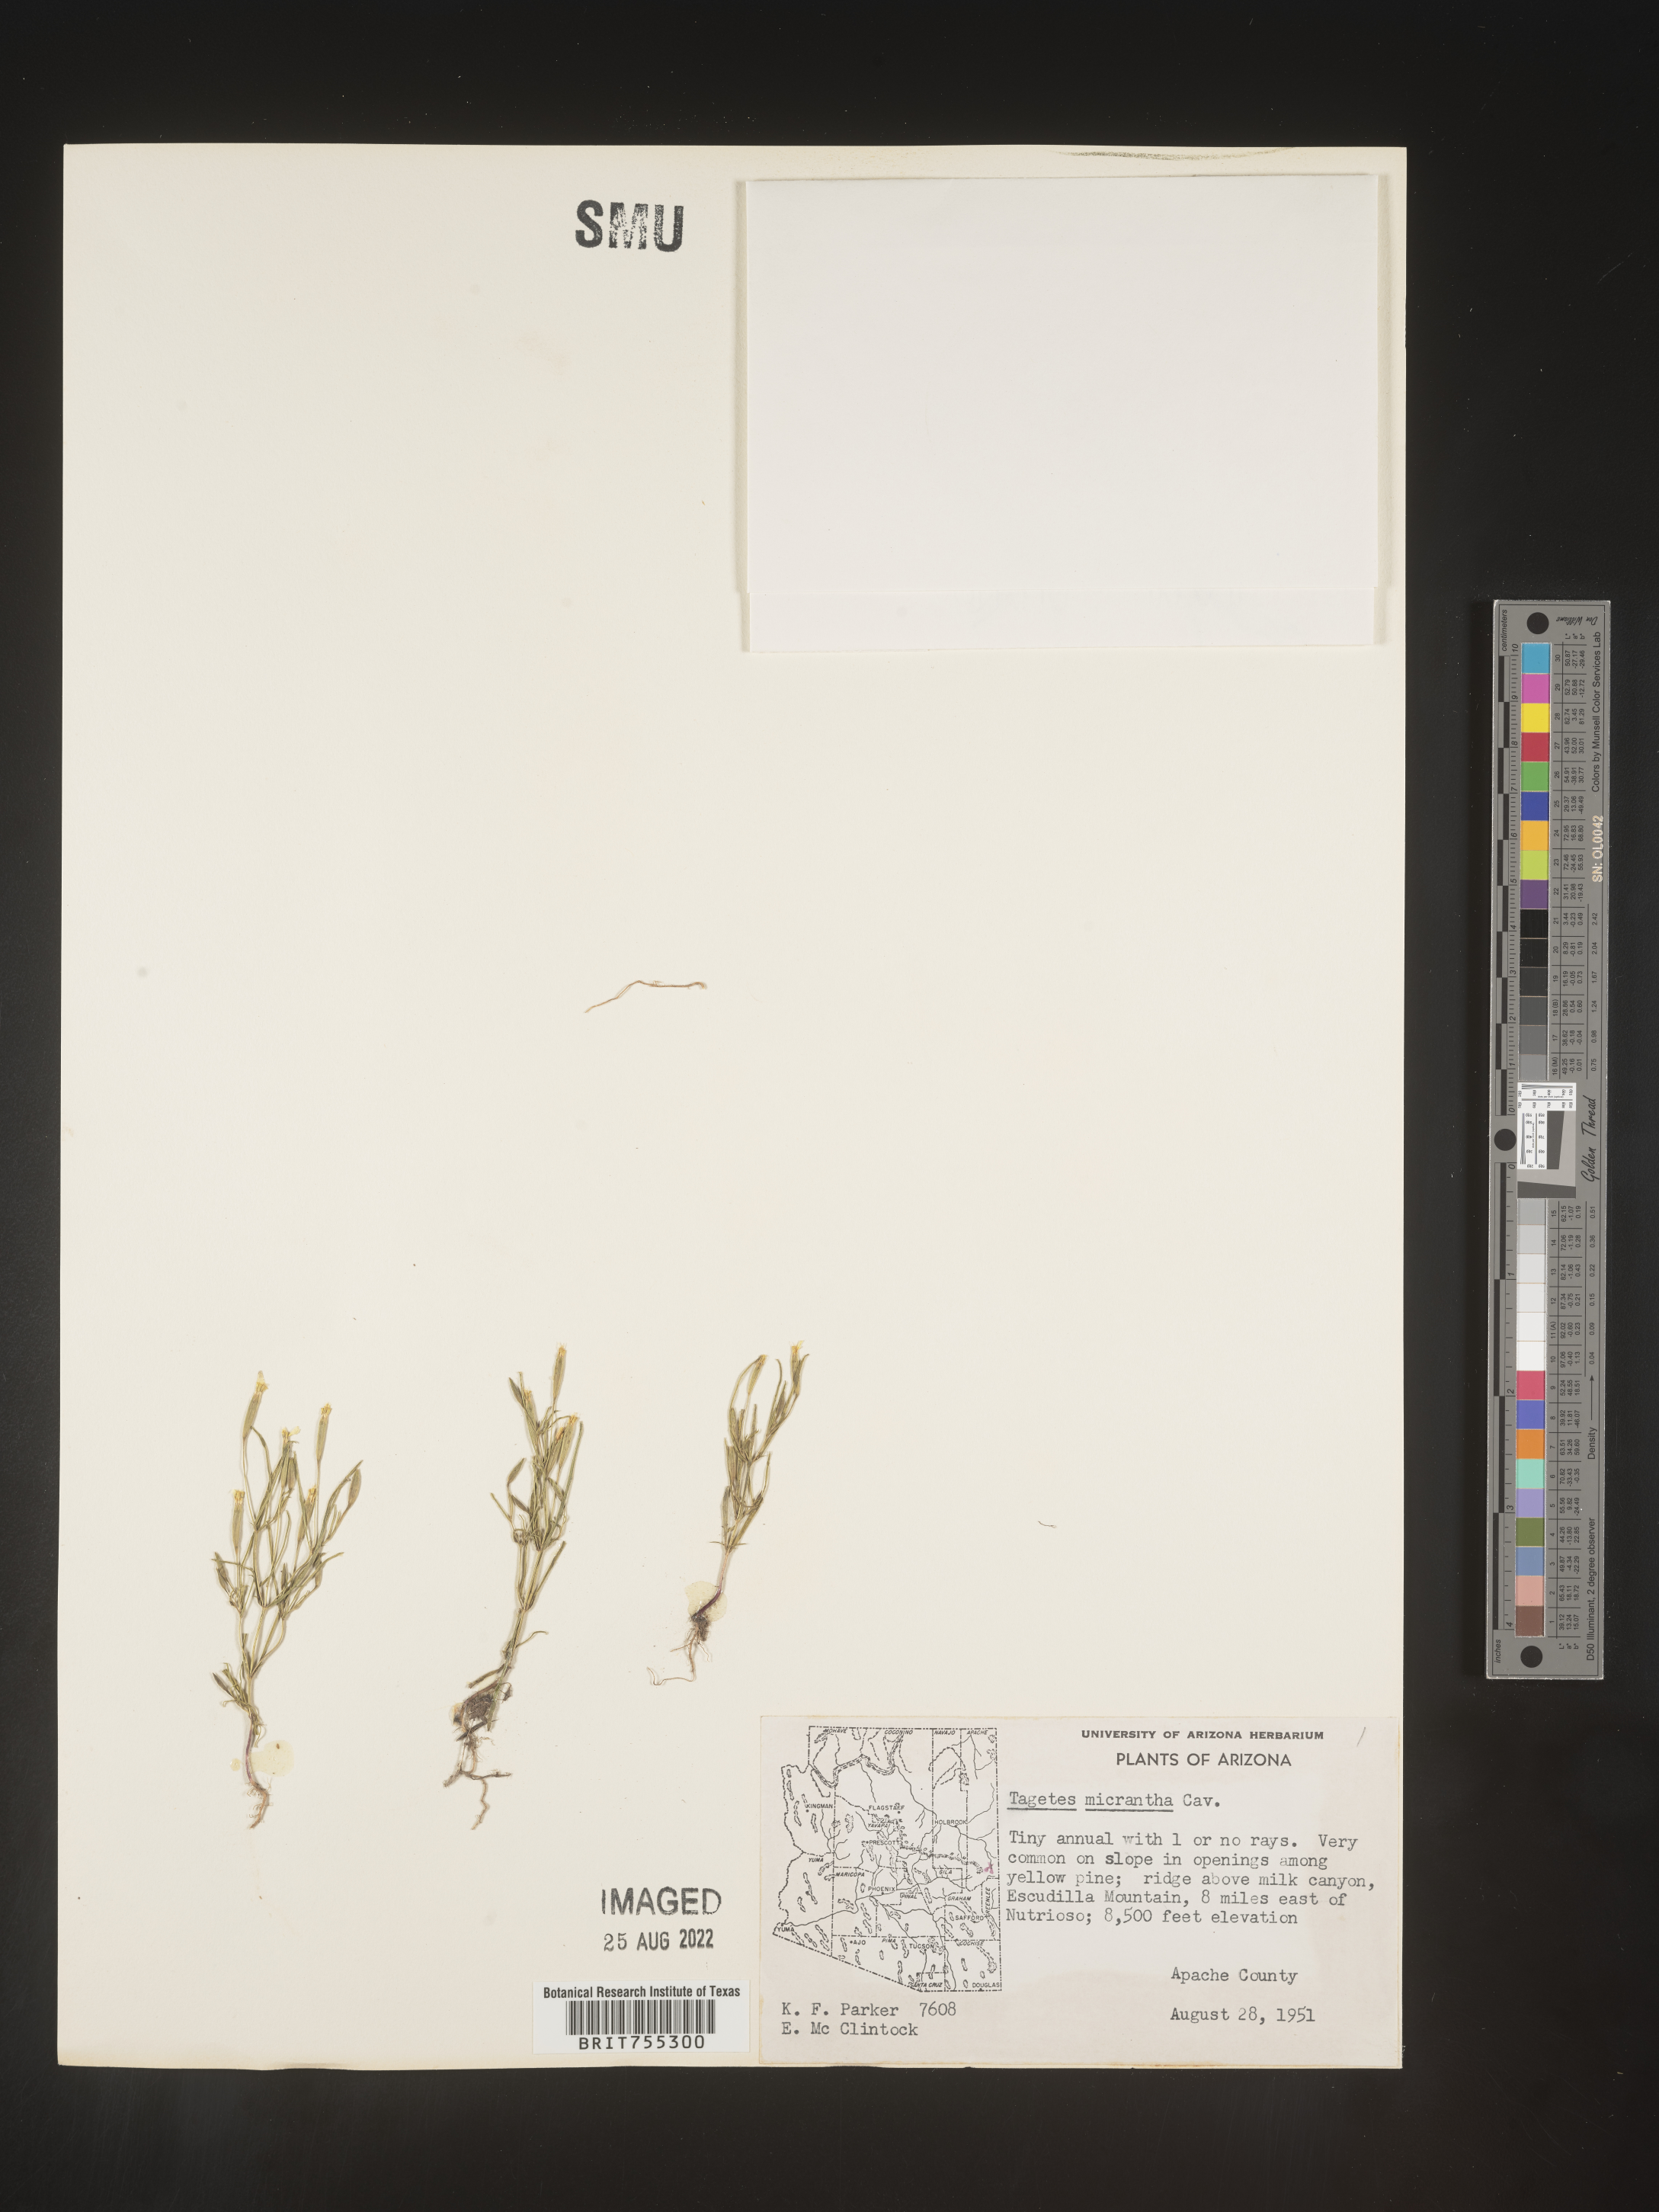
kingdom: Plantae
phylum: Tracheophyta
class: Magnoliopsida
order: Asterales
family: Asteraceae
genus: Tagetes
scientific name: Tagetes
